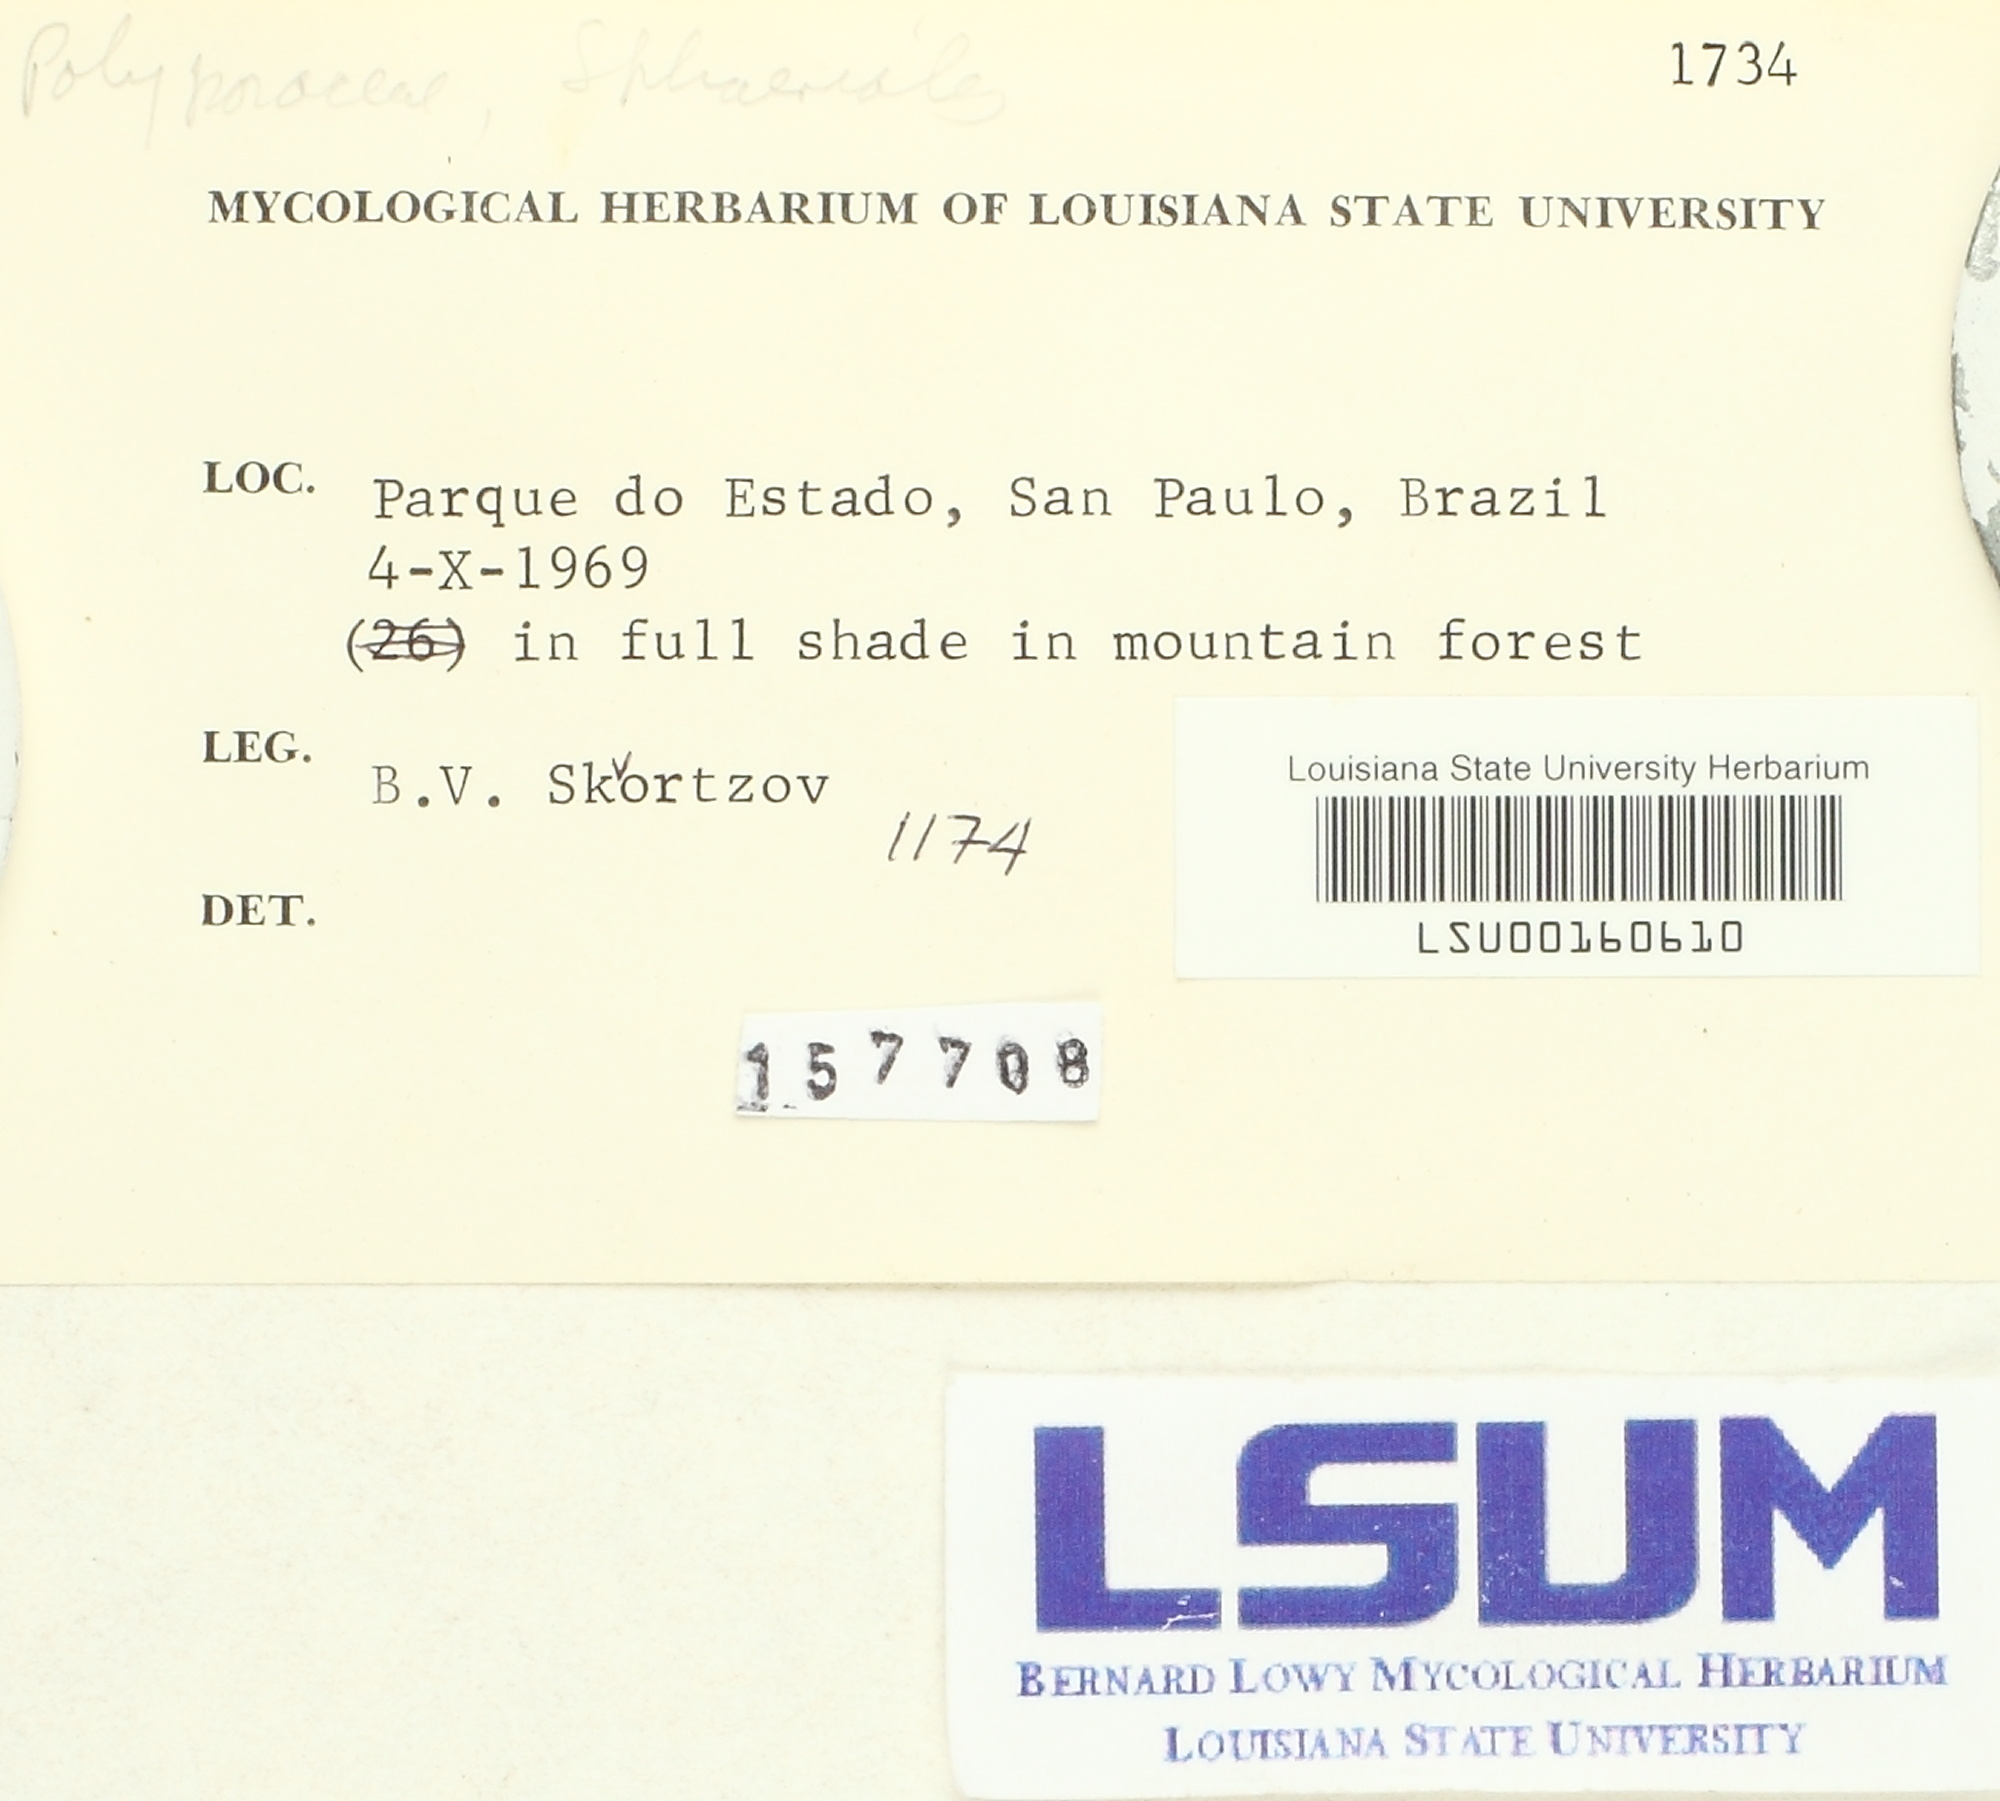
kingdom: Fungi
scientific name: Fungi
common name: Fungi
